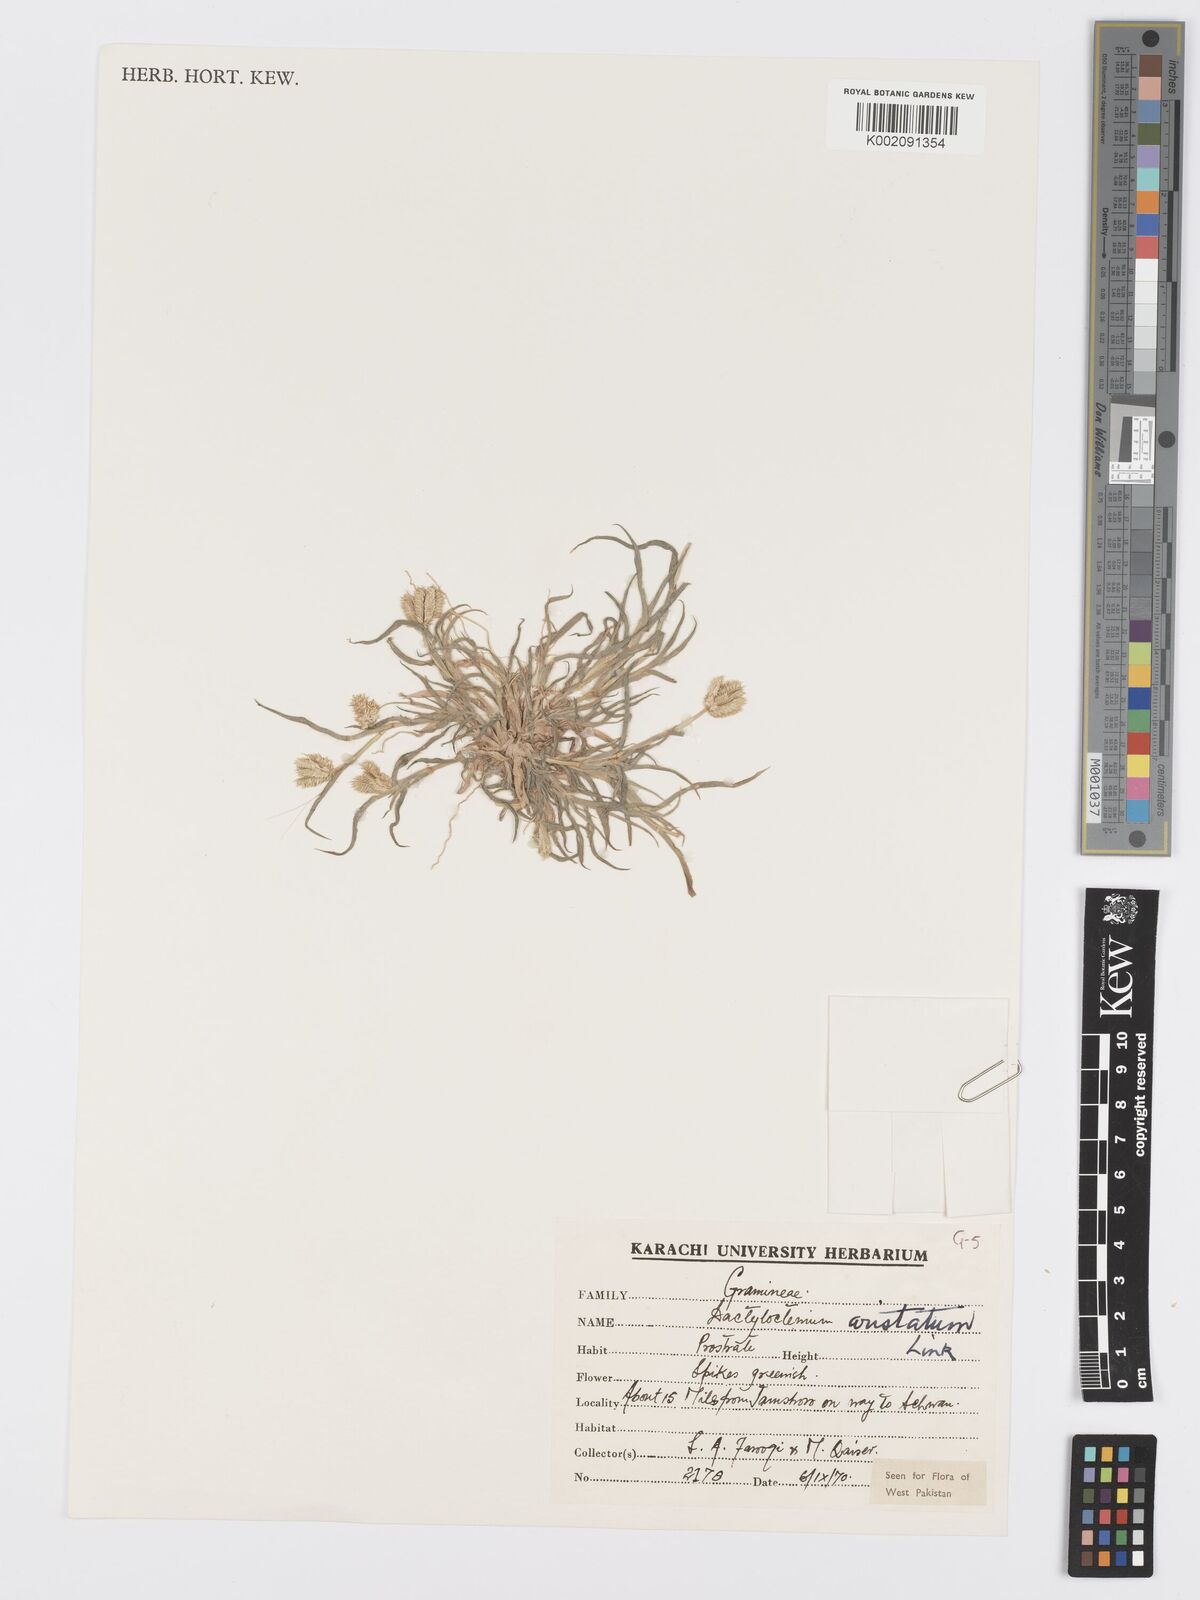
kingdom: Plantae
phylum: Tracheophyta
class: Liliopsida
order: Poales
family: Poaceae
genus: Dactyloctenium
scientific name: Dactyloctenium aristatum
